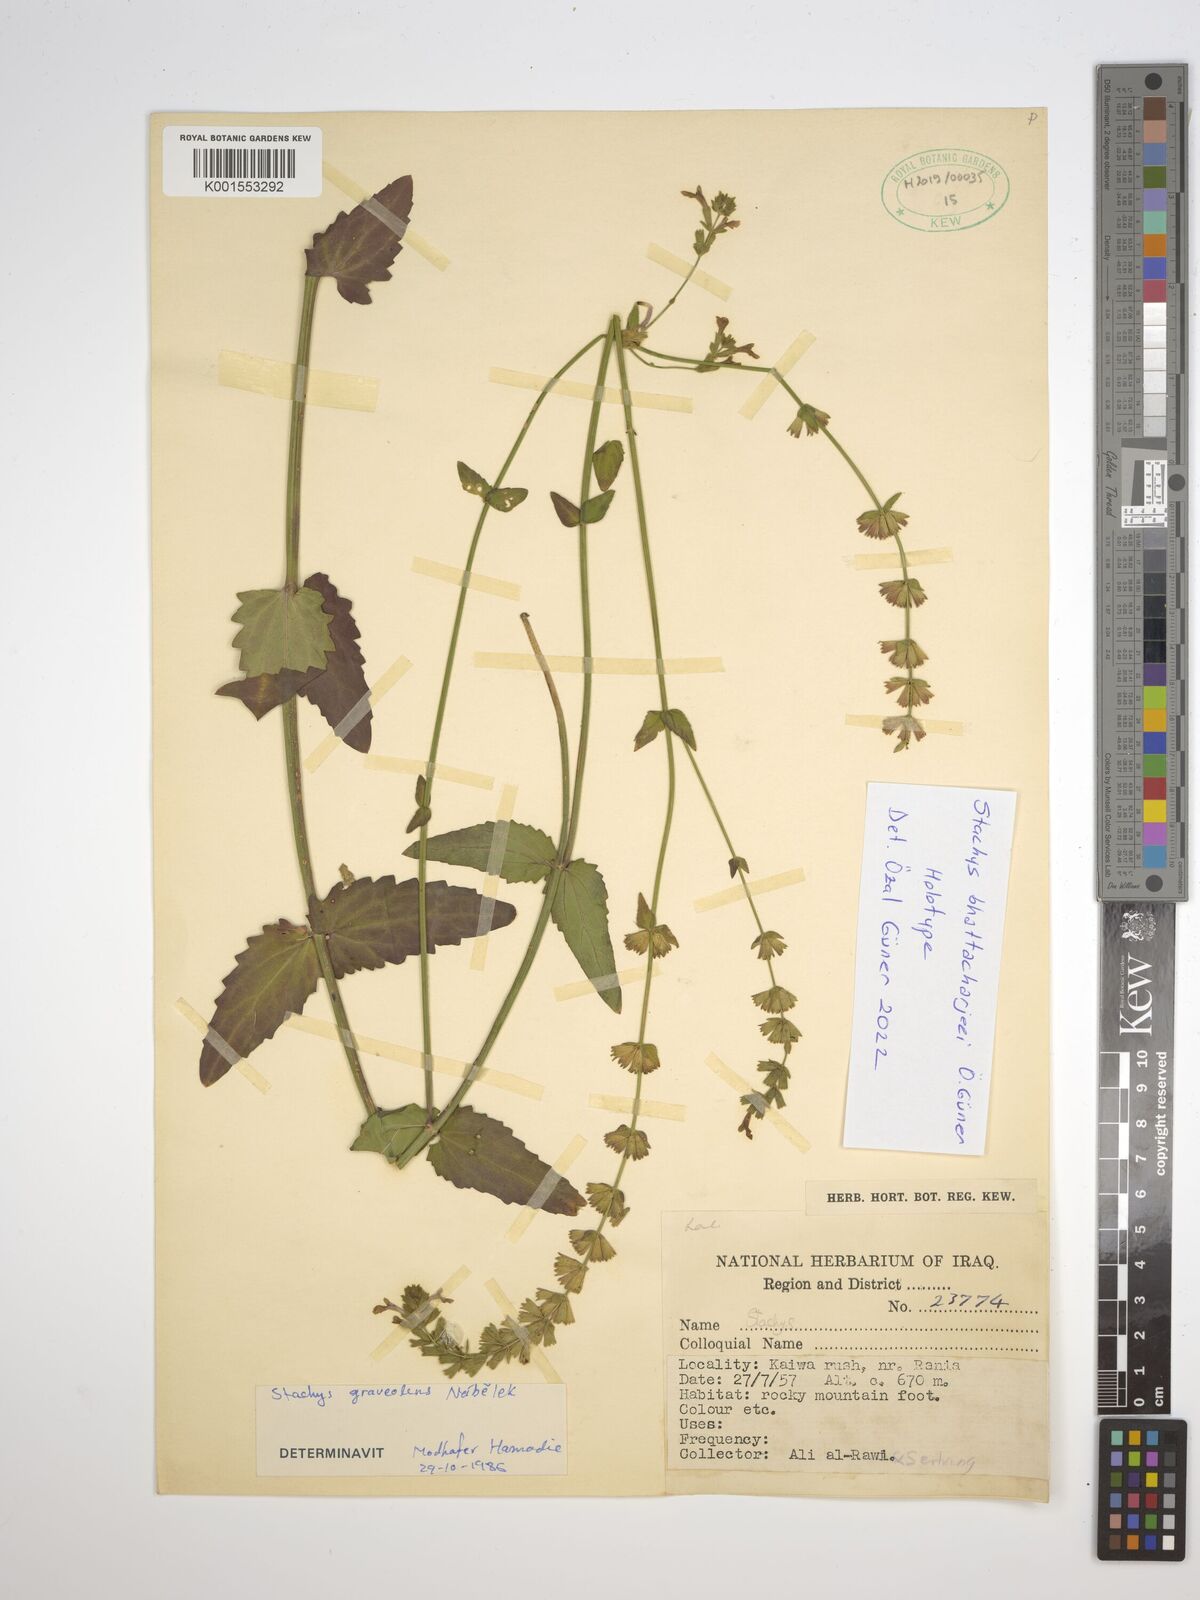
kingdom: Plantae
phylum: Tracheophyta
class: Magnoliopsida
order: Lamiales
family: Lamiaceae
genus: Stachys
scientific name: Stachys
